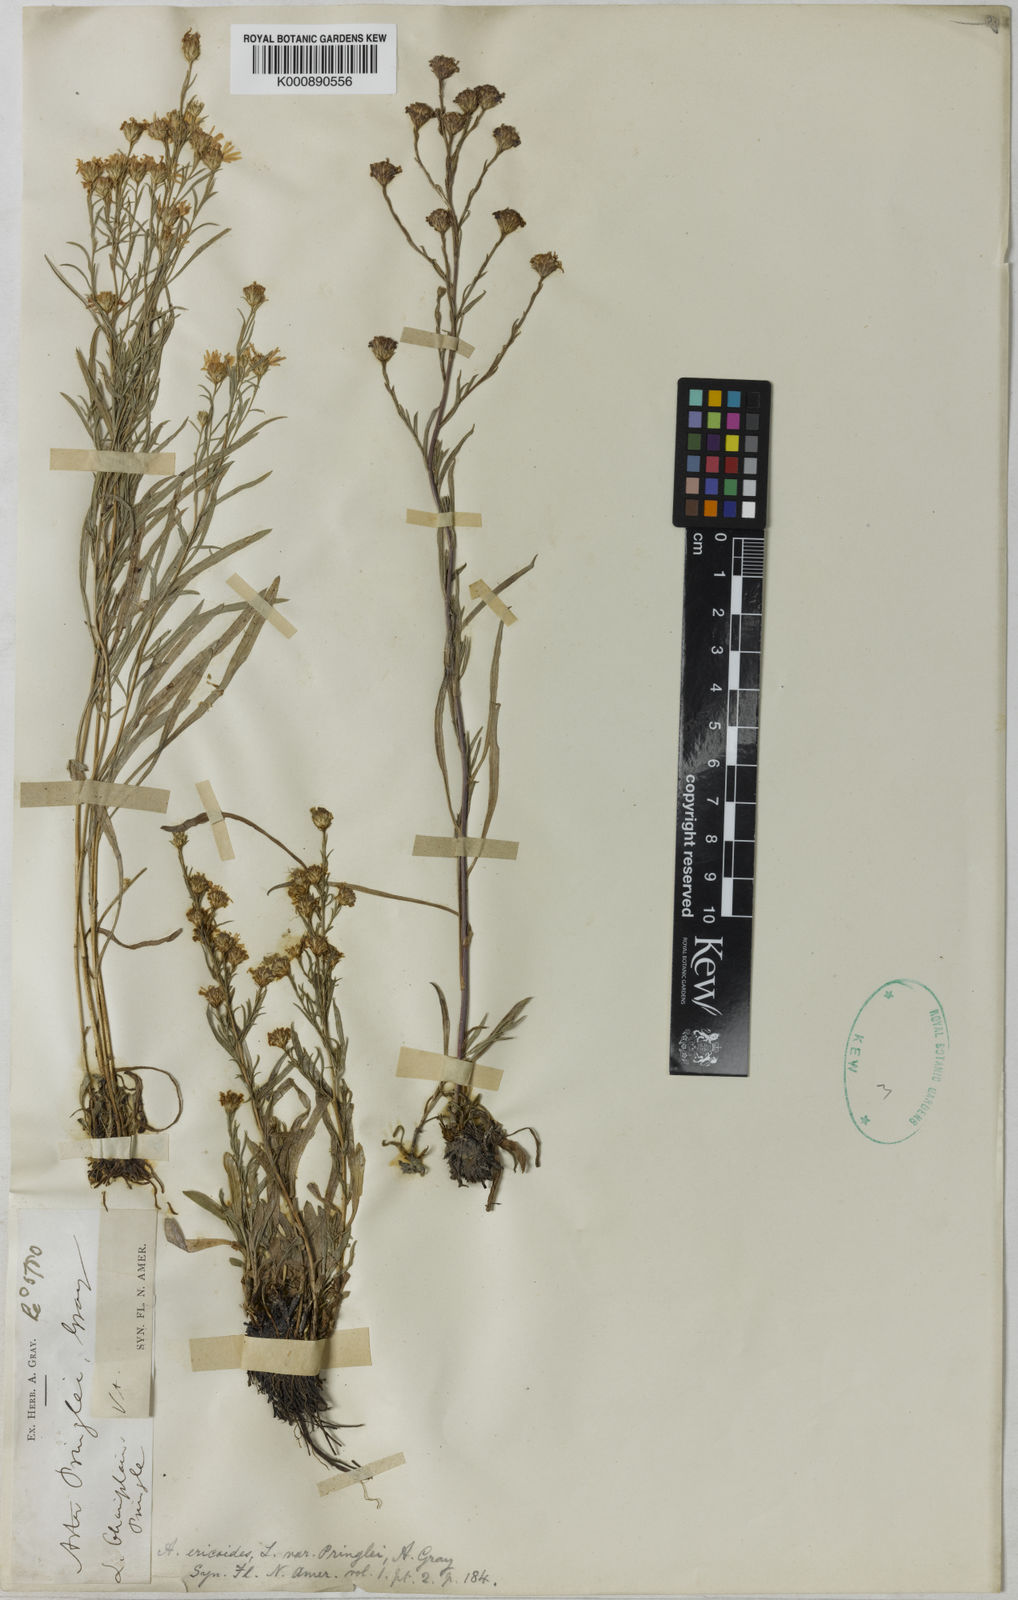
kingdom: Plantae
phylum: Tracheophyta
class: Magnoliopsida
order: Asterales
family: Asteraceae
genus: Symphyotrichum
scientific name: Symphyotrichum pilosum
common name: Awl aster
